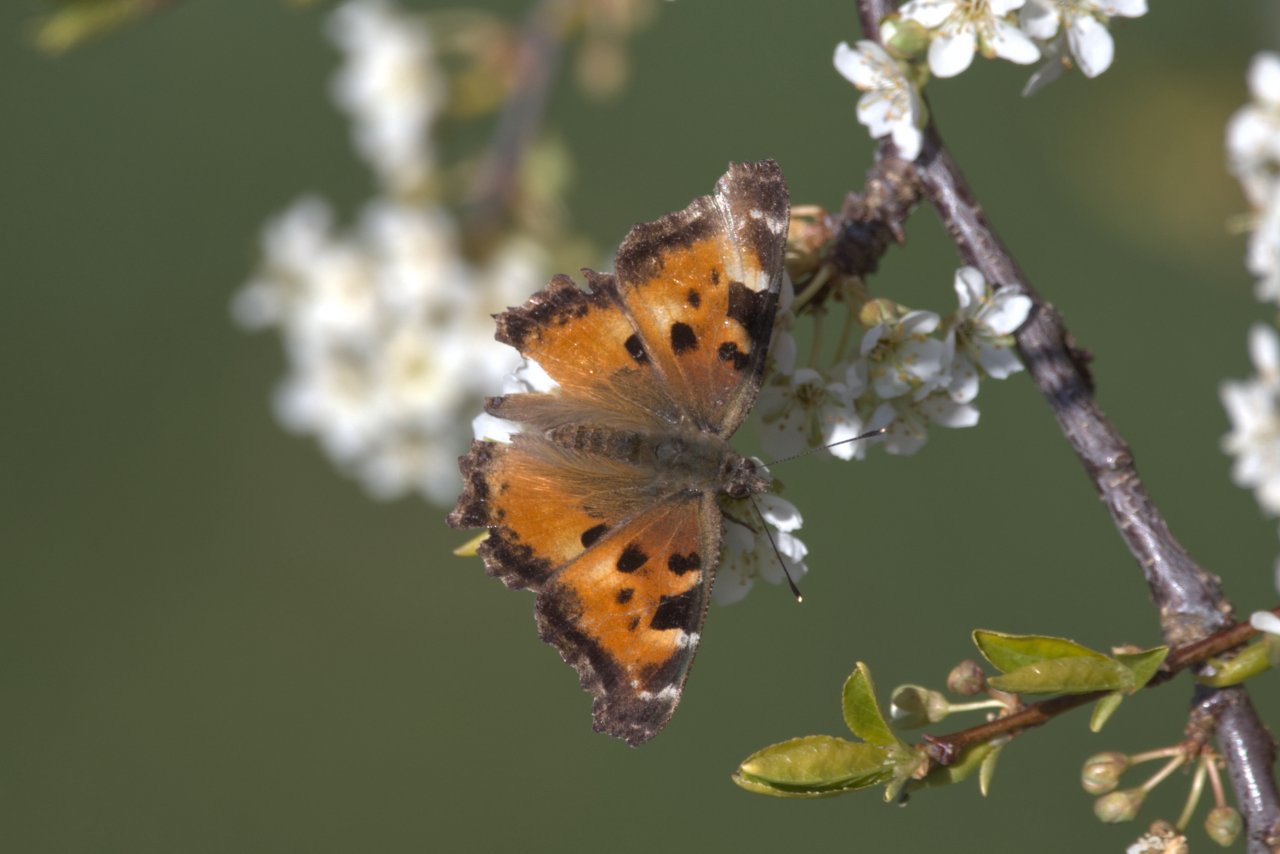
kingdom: Animalia
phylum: Arthropoda
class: Insecta
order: Lepidoptera
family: Nymphalidae
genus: Nymphalis
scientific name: Nymphalis californica
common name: California Tortoiseshell
